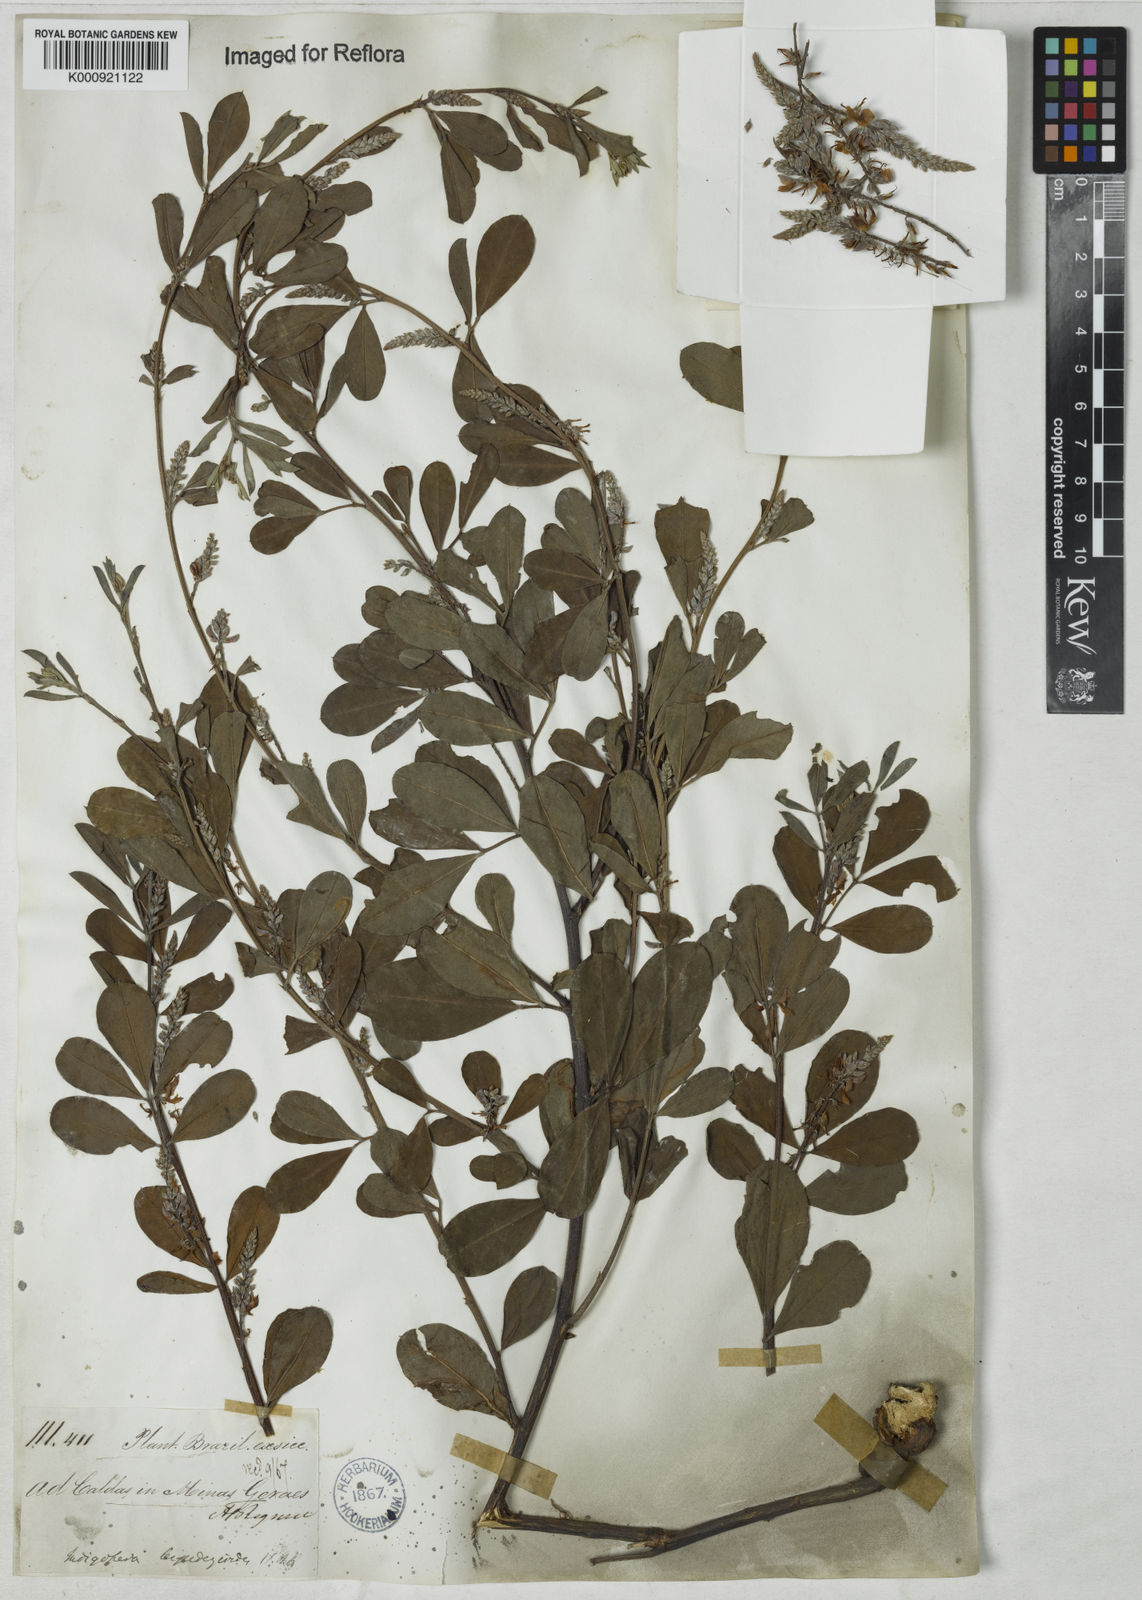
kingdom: Plantae
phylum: Tracheophyta
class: Magnoliopsida
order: Fabales
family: Fabaceae
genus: Indigofera
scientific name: Indigofera lespedezioides
